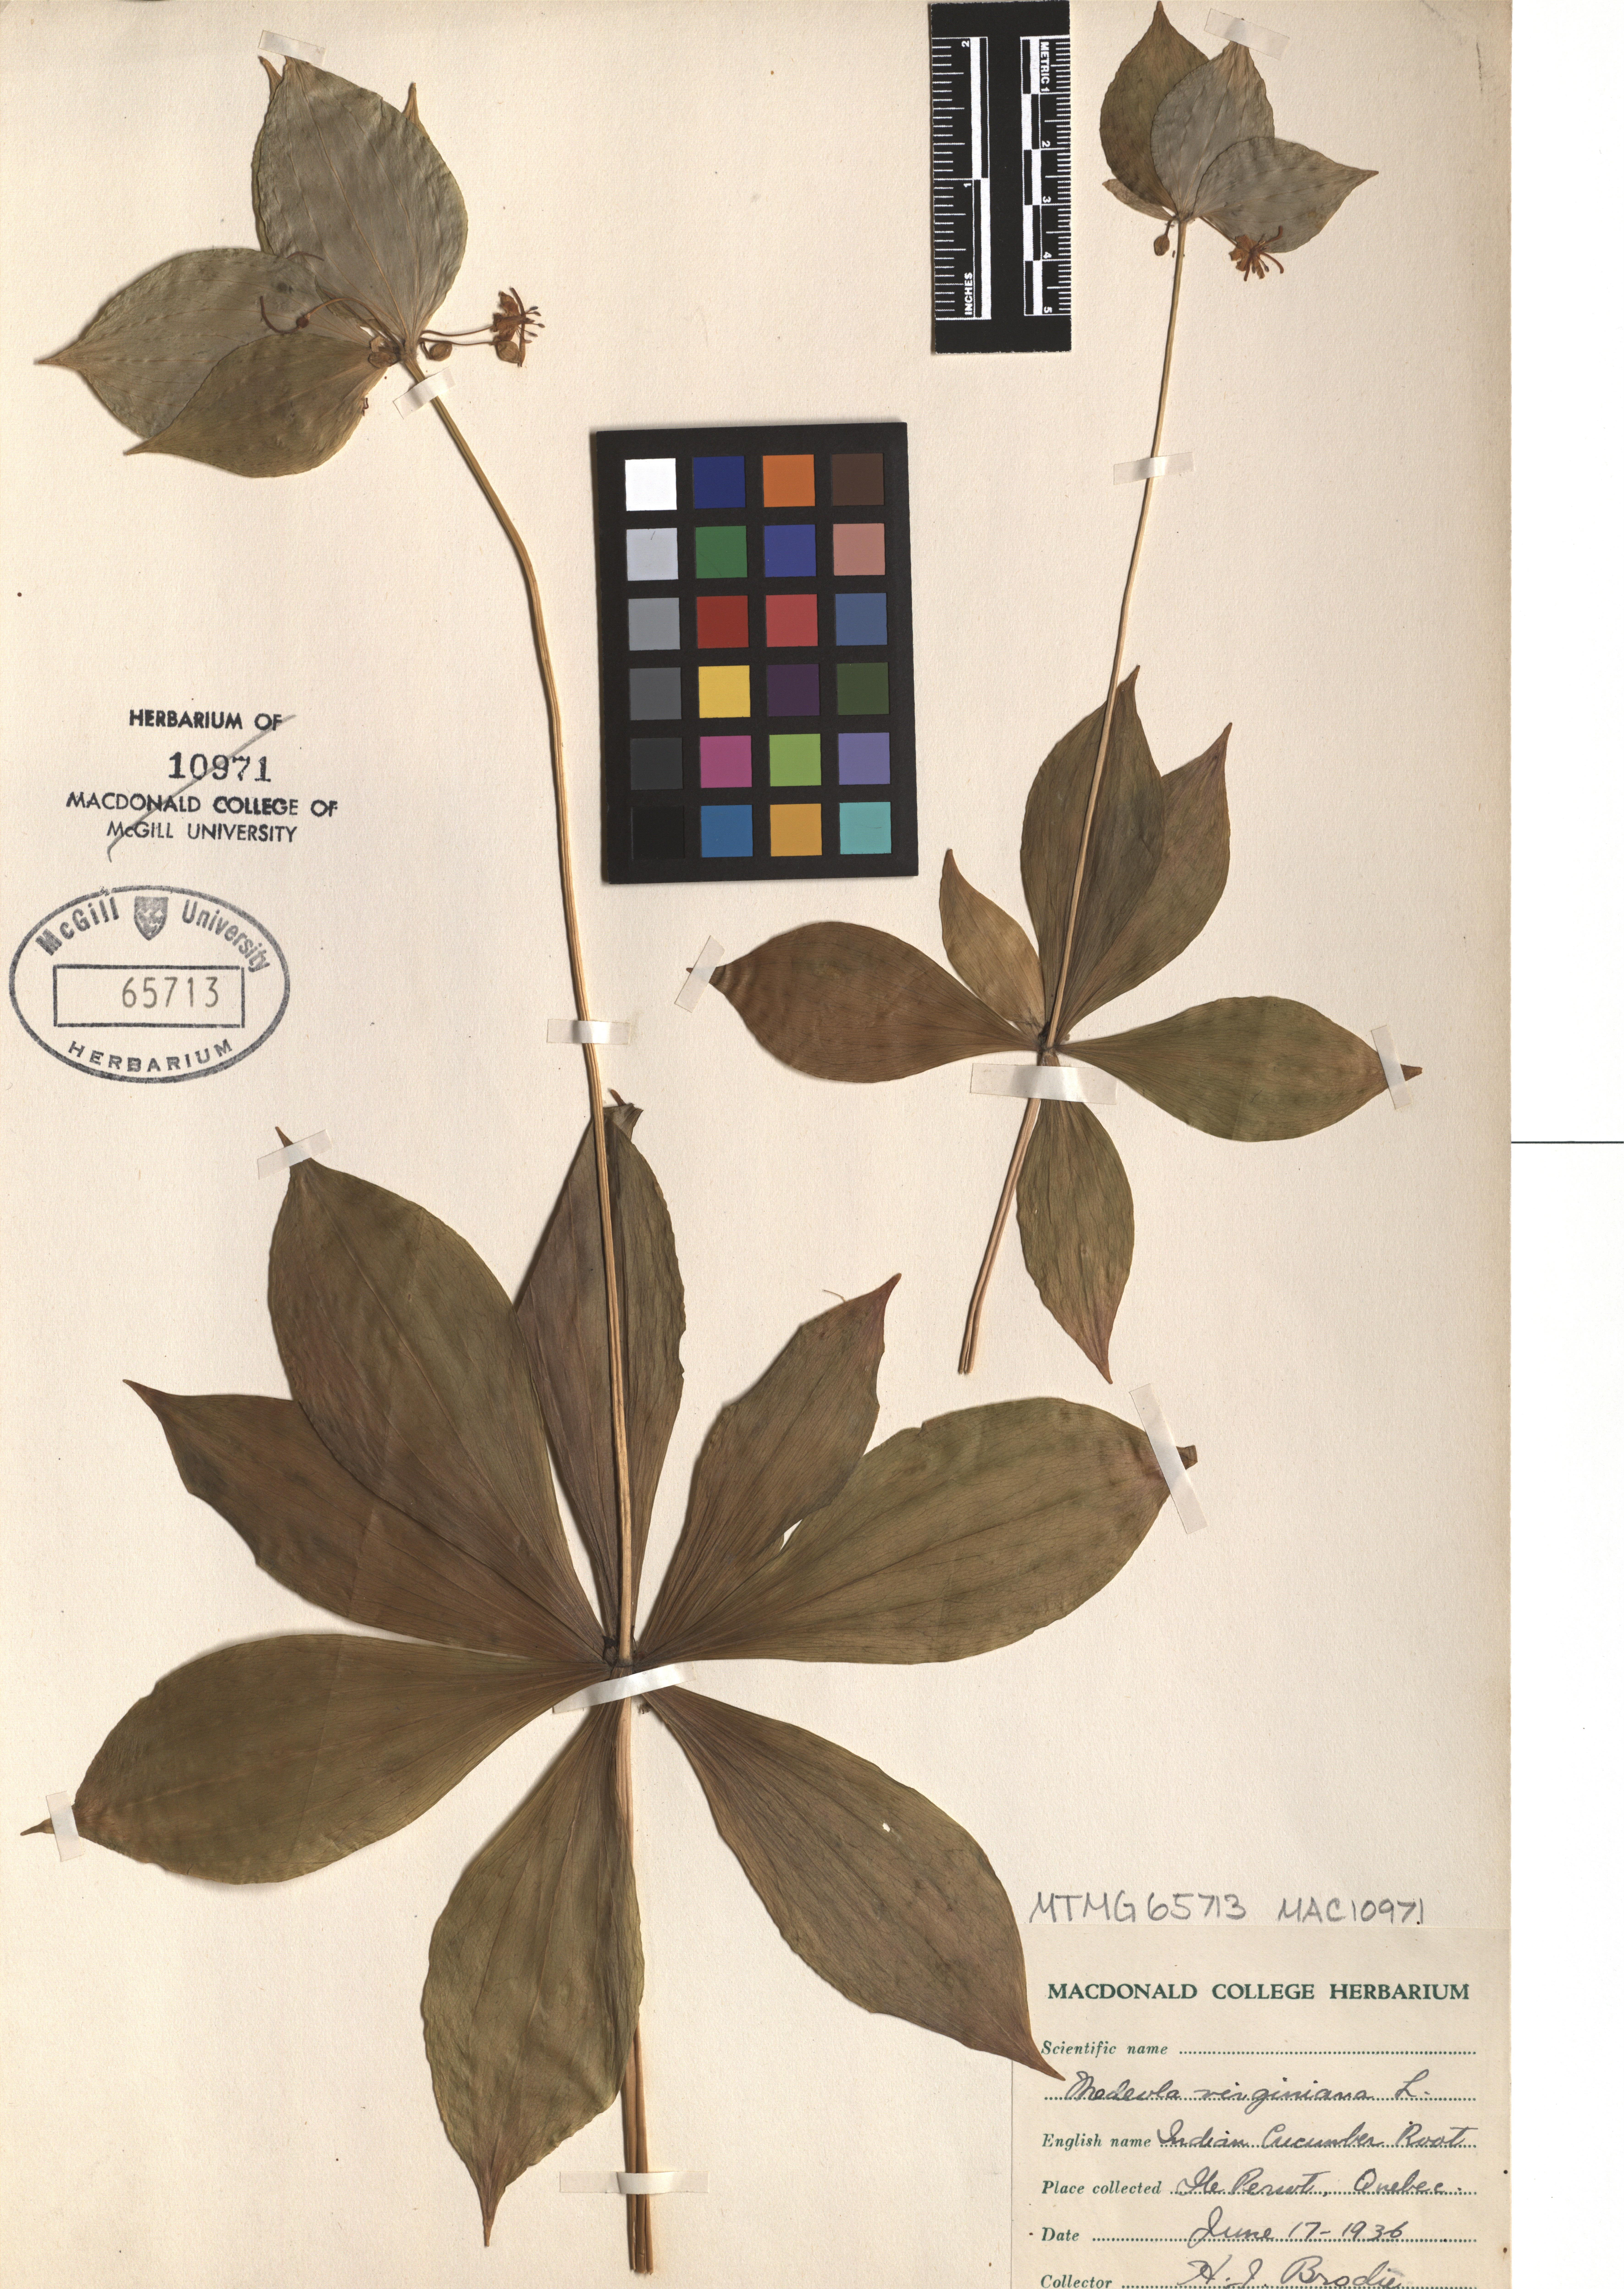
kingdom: Plantae
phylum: Tracheophyta
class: Liliopsida
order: Liliales
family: Liliaceae
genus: Medeola
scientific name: Medeola virginiana
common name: Indian cucumber-root
